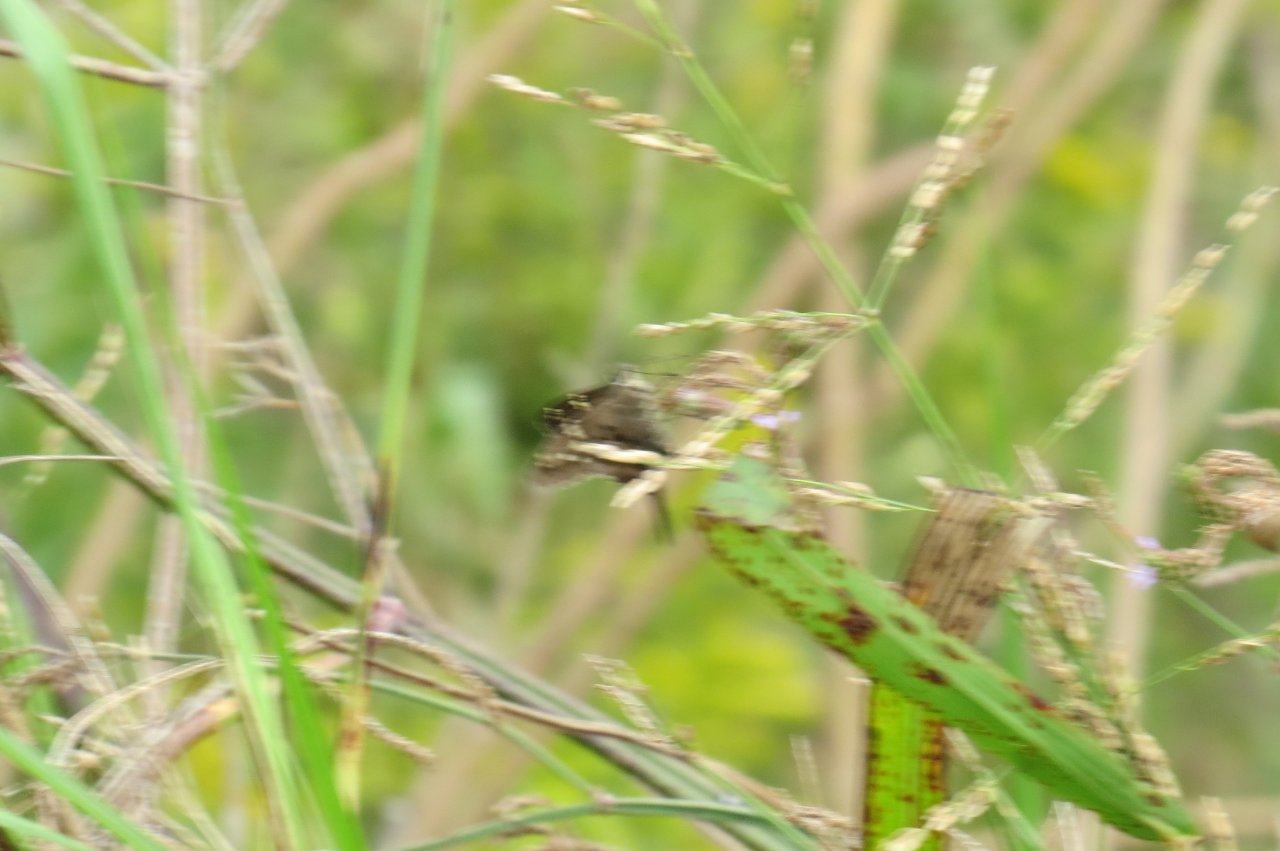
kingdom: Animalia
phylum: Arthropoda
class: Insecta
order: Lepidoptera
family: Hesperiidae
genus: Urbanus
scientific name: Urbanus proteus
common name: Long-tailed Skipper
